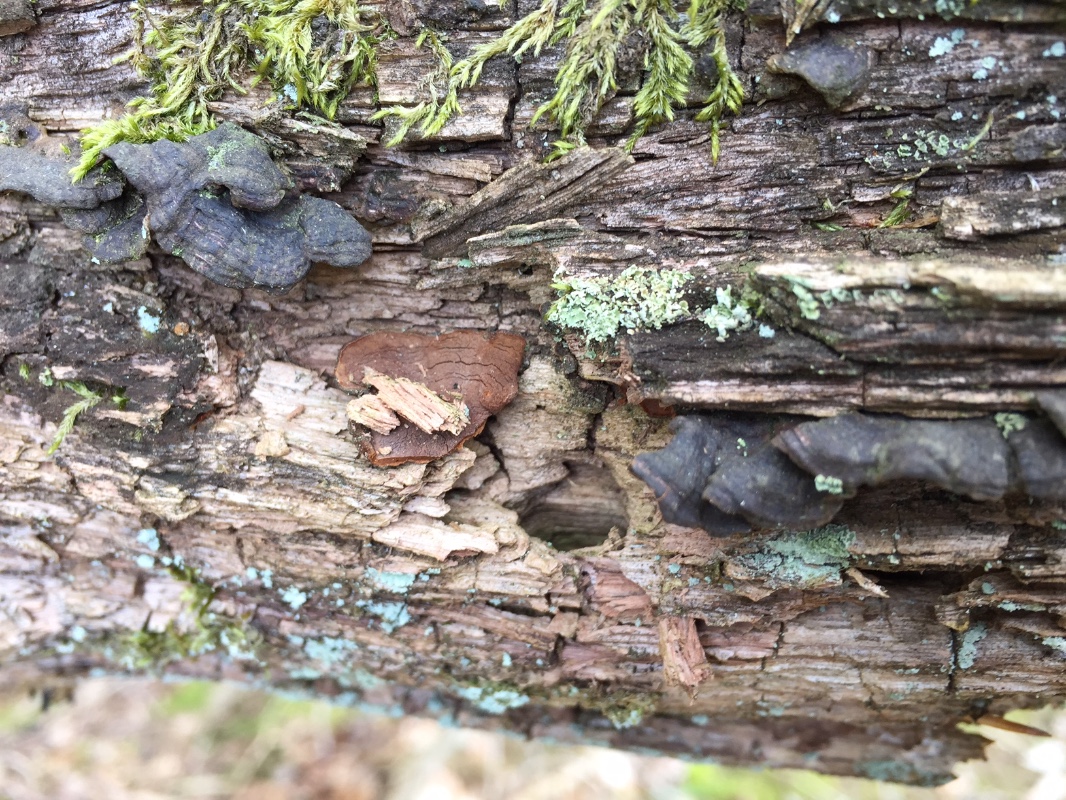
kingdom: Fungi
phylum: Basidiomycota
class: Agaricomycetes
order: Hymenochaetales
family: Hymenochaetaceae
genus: Hymenochaete
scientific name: Hymenochaete rubiginosa
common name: stiv ruslædersvamp
